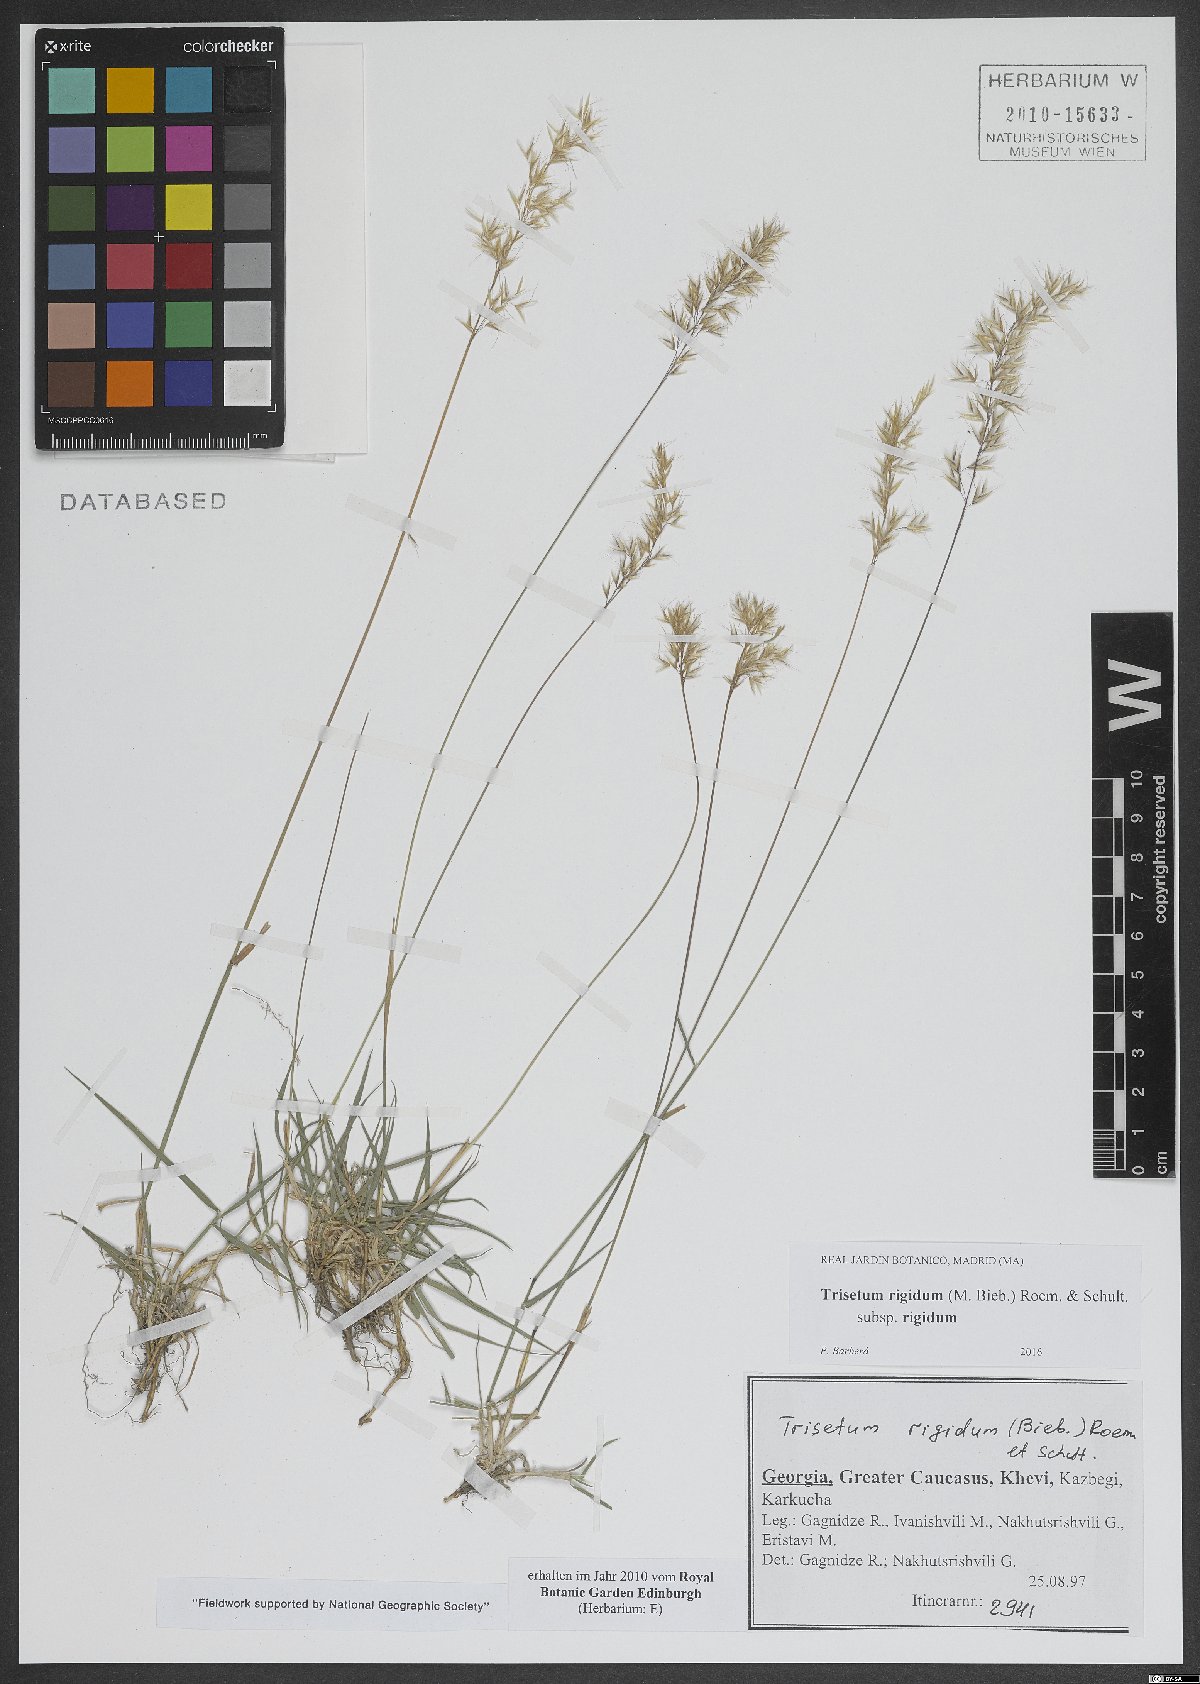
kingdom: Plantae
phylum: Tracheophyta
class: Liliopsida
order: Poales
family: Poaceae
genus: Trisetum
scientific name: Trisetum rigidum
